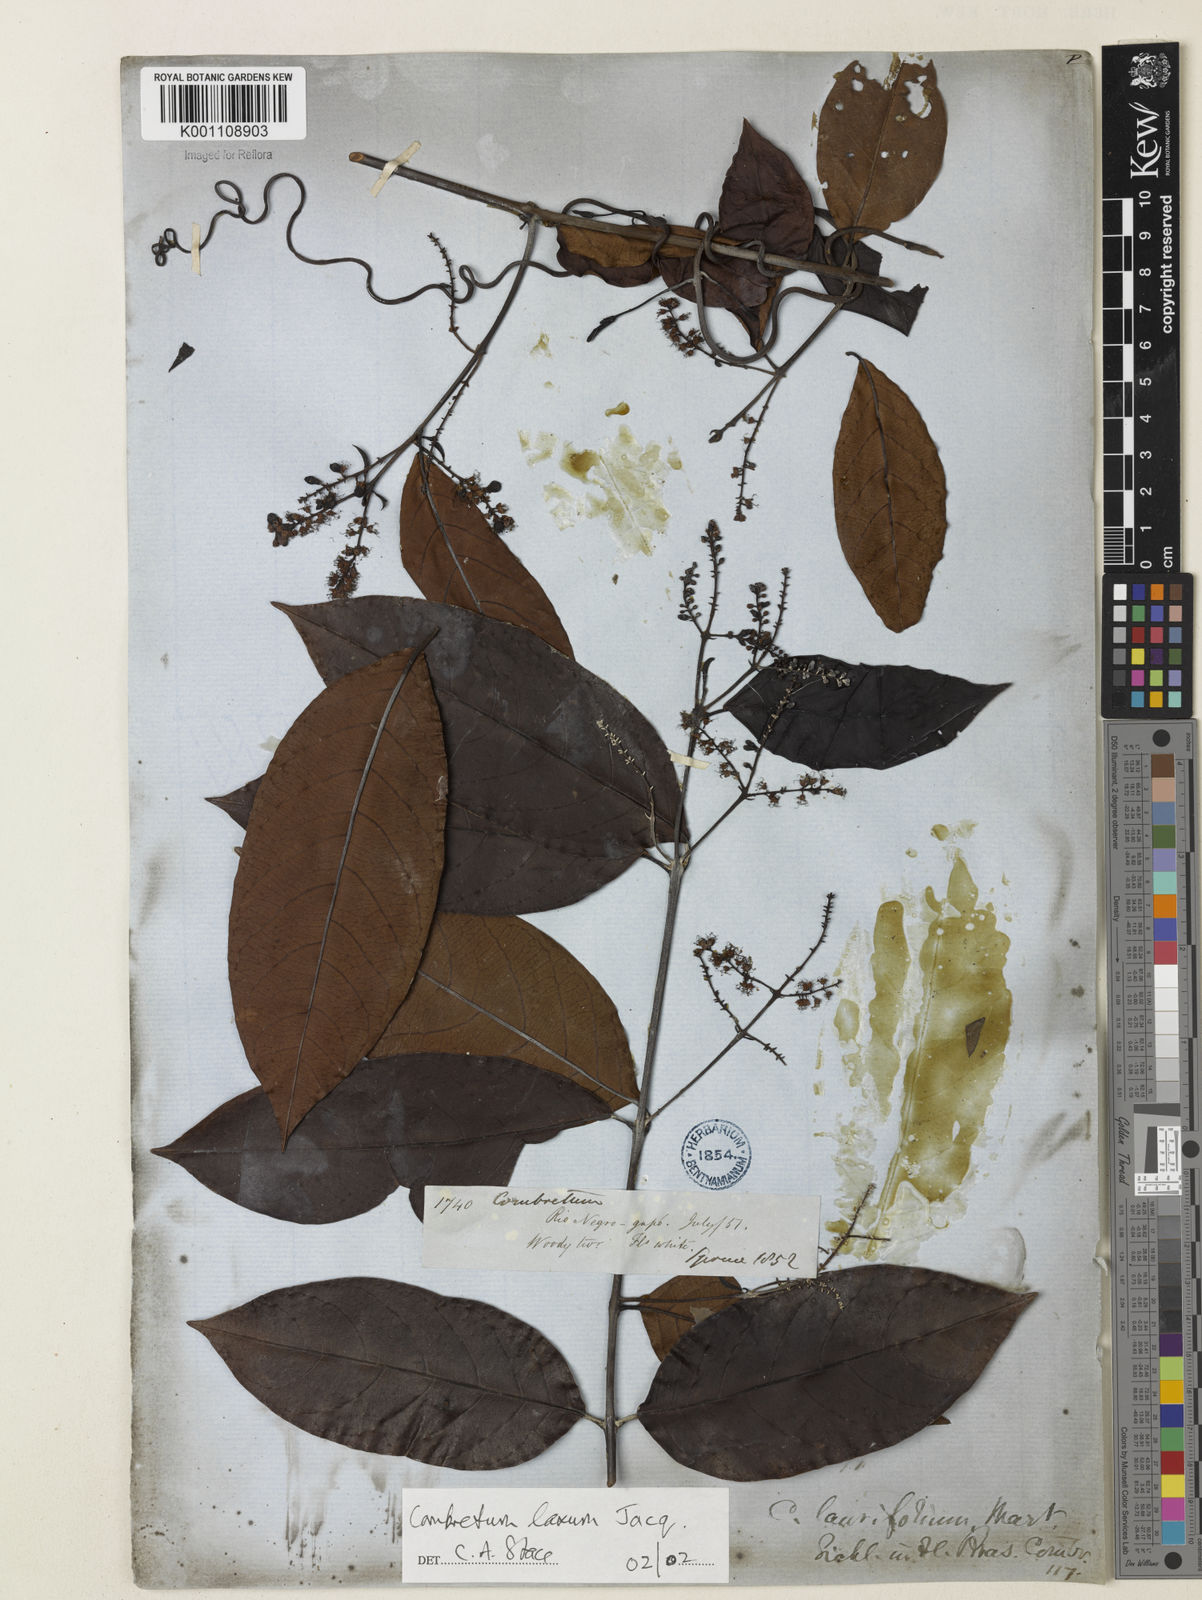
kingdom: Plantae
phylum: Tracheophyta
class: Magnoliopsida
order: Myrtales
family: Combretaceae
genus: Combretum
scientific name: Combretum laxum
